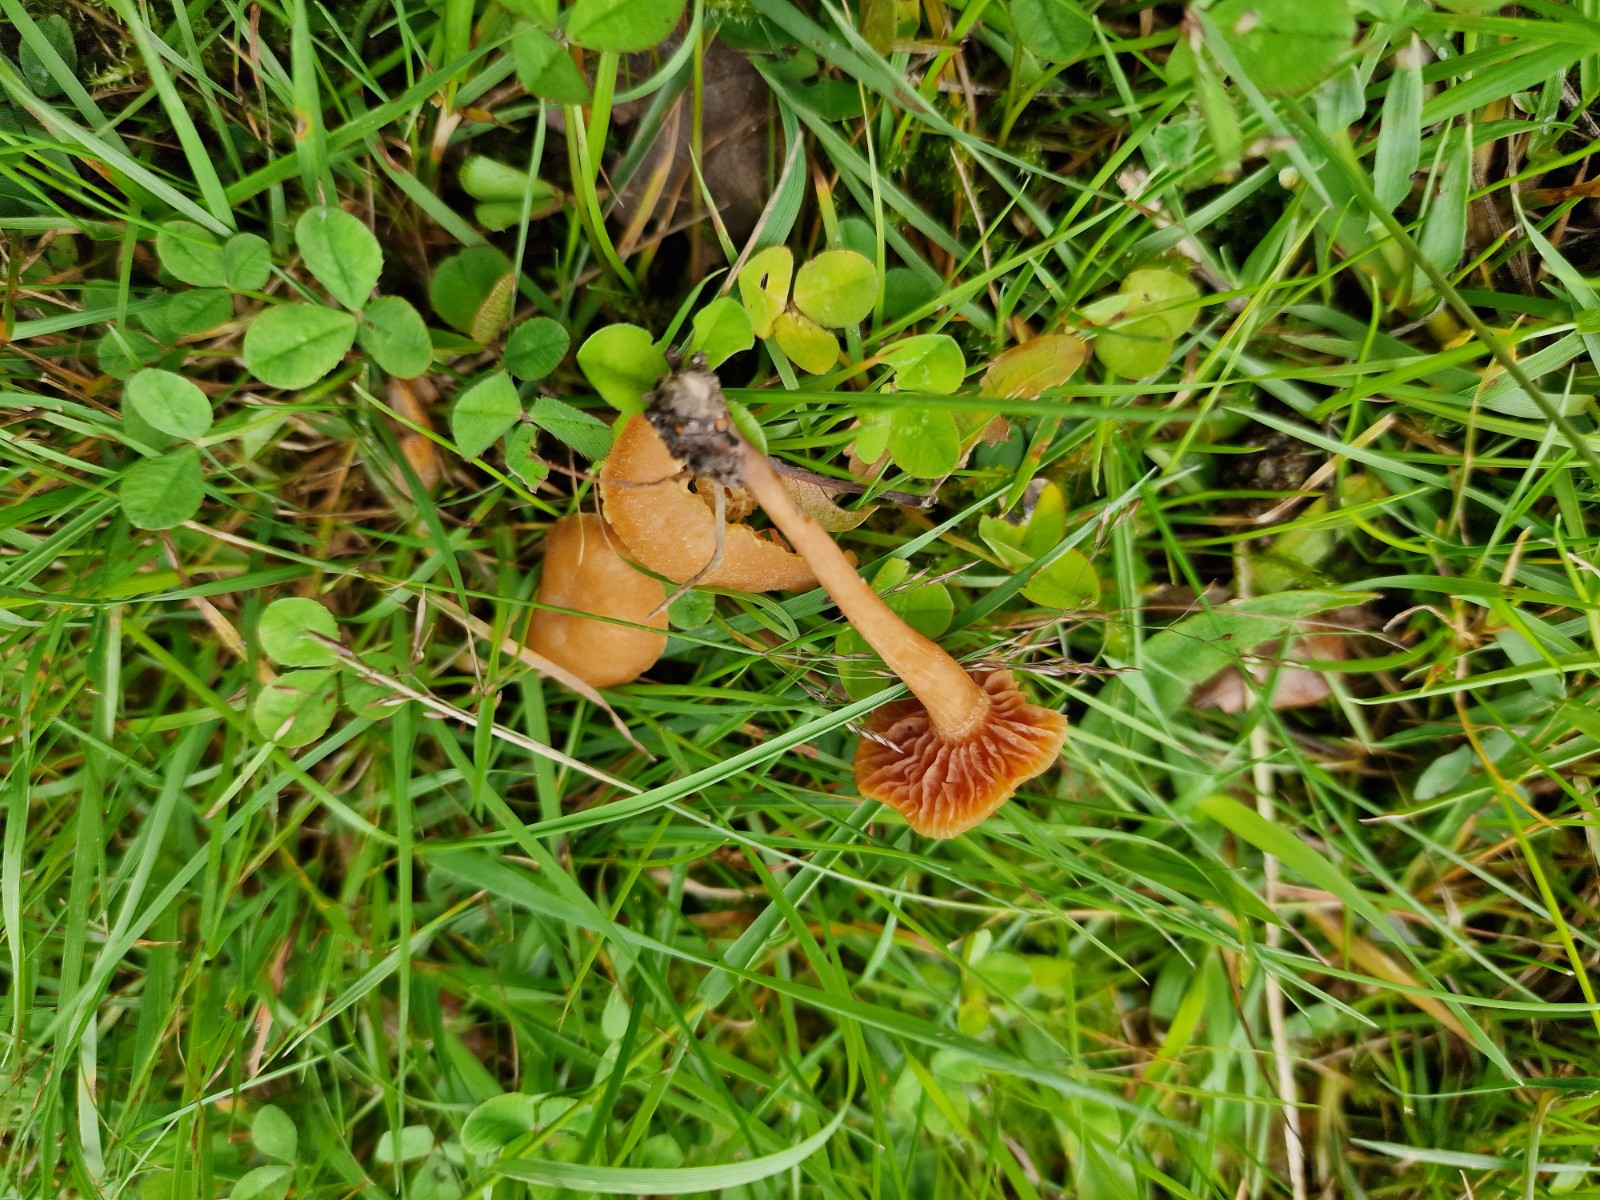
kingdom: Fungi
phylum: Basidiomycota
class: Agaricomycetes
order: Agaricales
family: Hydnangiaceae
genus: Laccaria
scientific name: Laccaria laccata
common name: rød ametysthat
